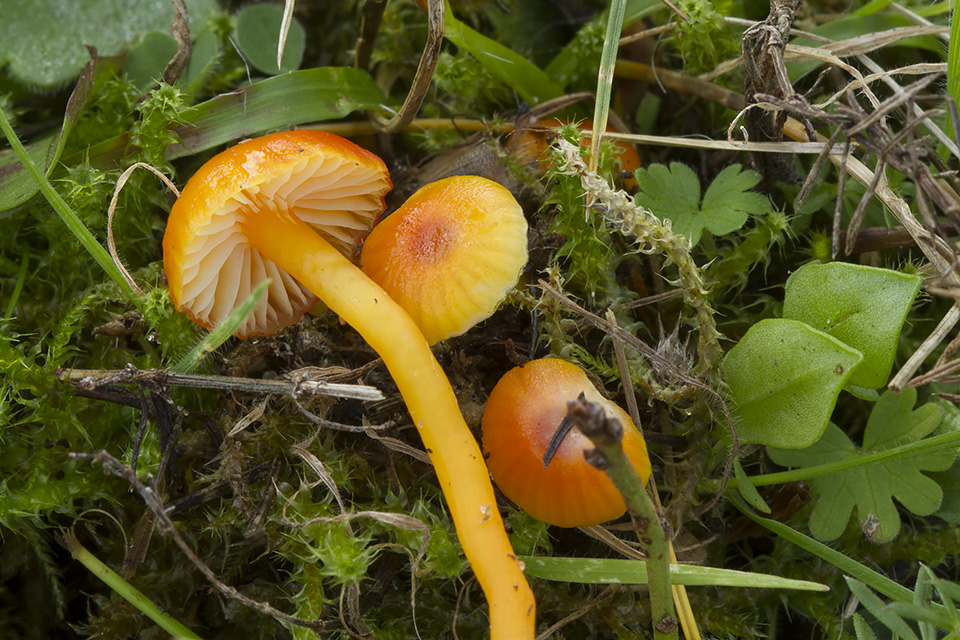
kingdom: Fungi
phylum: Basidiomycota
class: Agaricomycetes
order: Agaricales
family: Hygrophoraceae
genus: Hygrocybe
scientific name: Hygrocybe insipida
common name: liden vokshat
